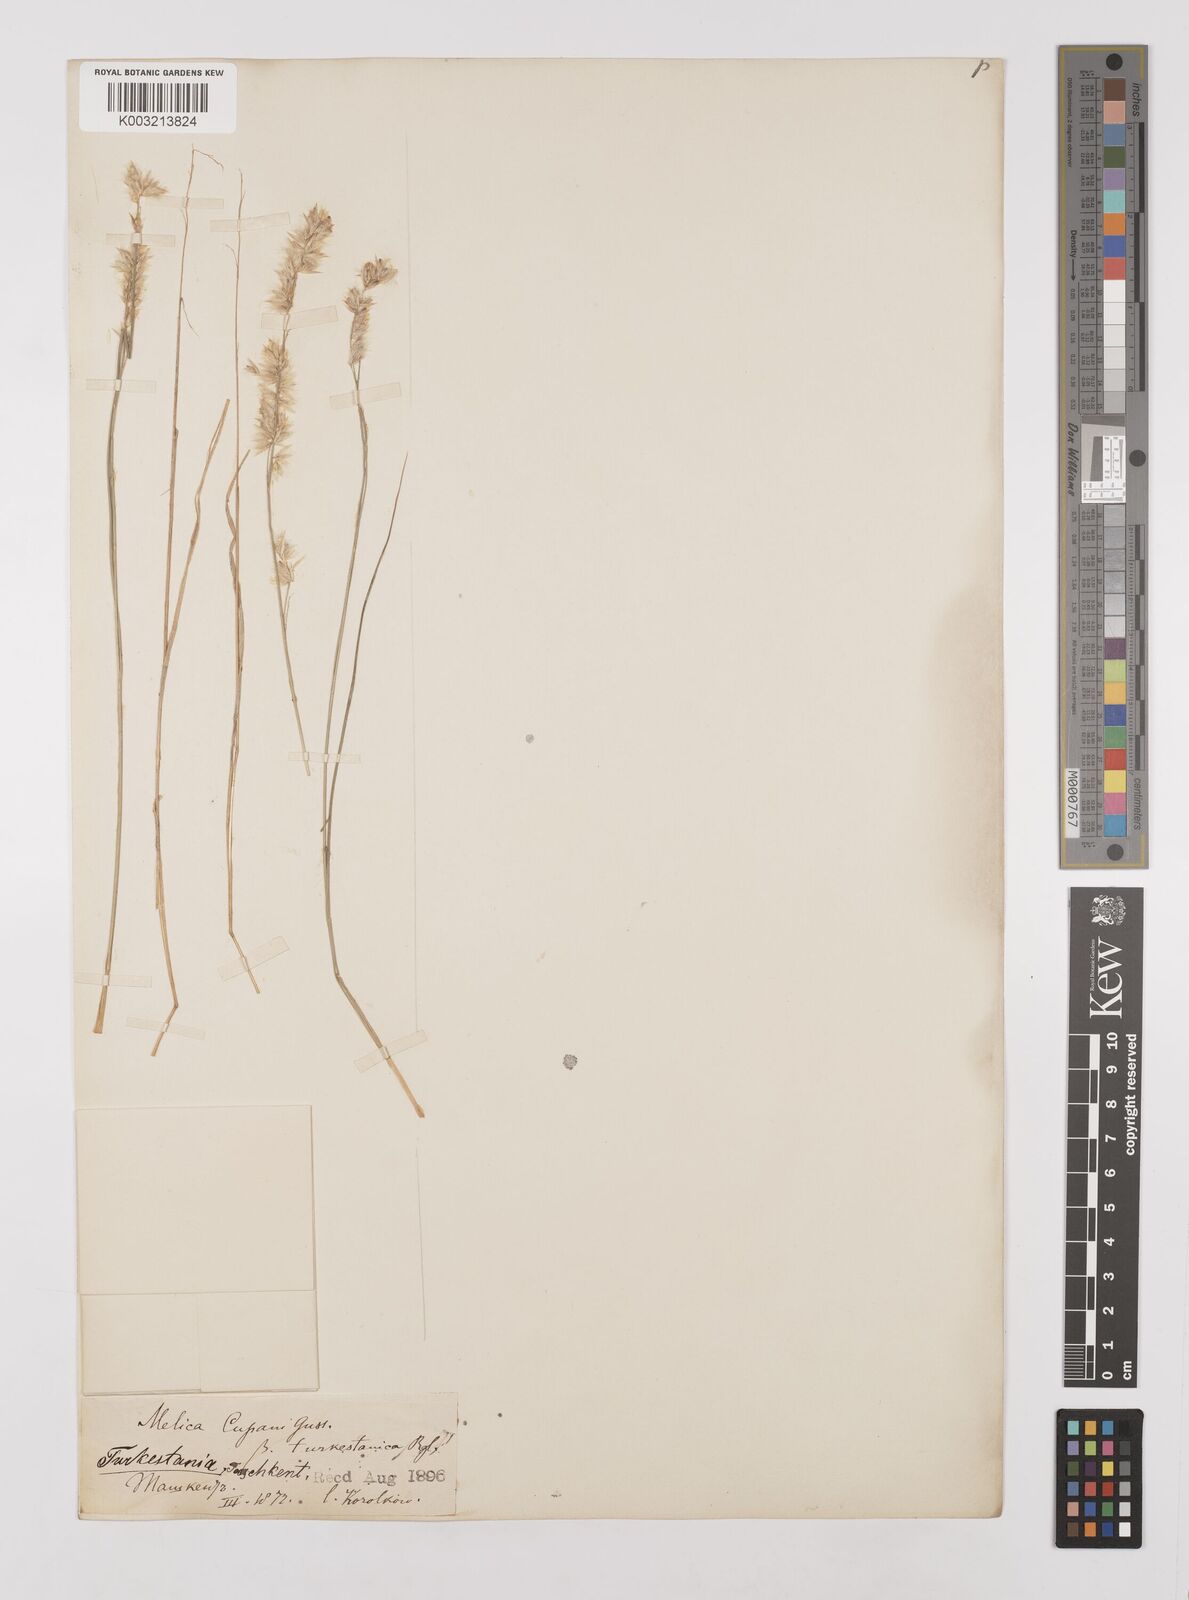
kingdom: Plantae
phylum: Tracheophyta
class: Liliopsida
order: Poales
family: Poaceae
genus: Melica
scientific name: Melica cupani
